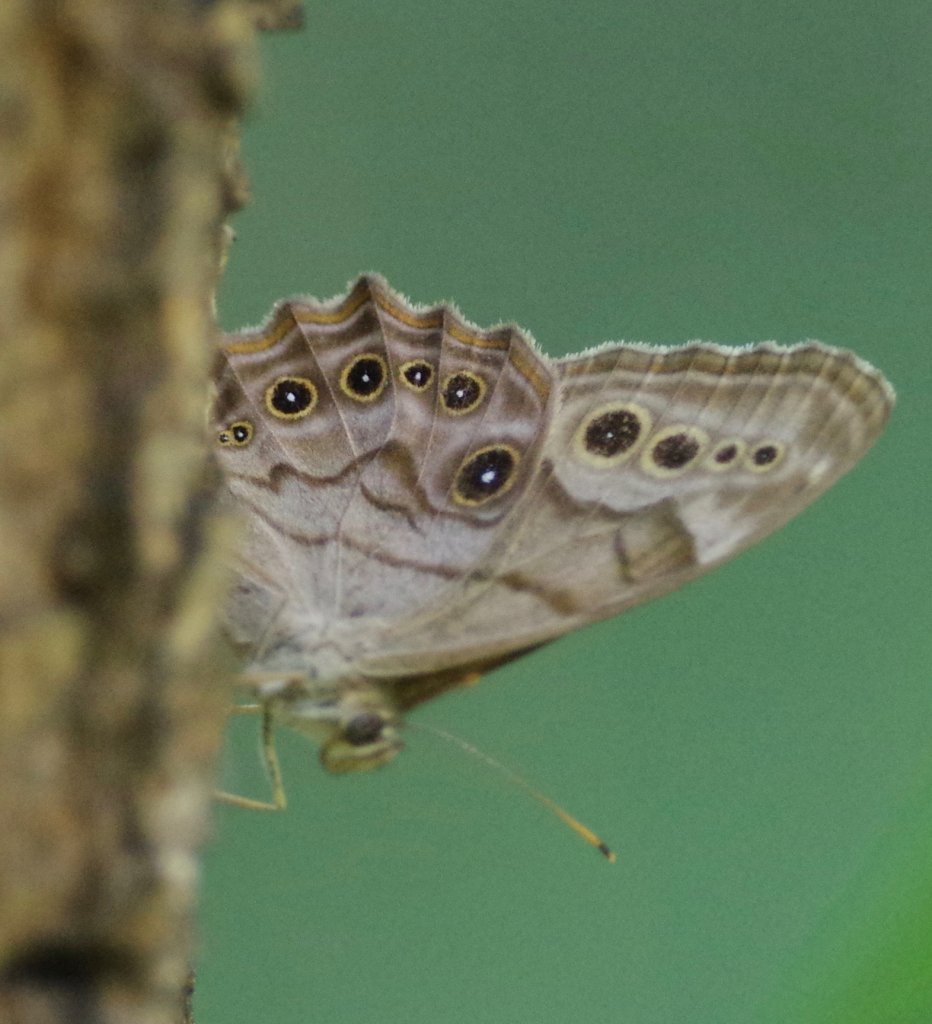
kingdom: Animalia
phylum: Arthropoda
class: Insecta
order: Lepidoptera
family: Nymphalidae
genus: Lethe
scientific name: Lethe anthedon
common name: Northern Pearly-Eye
